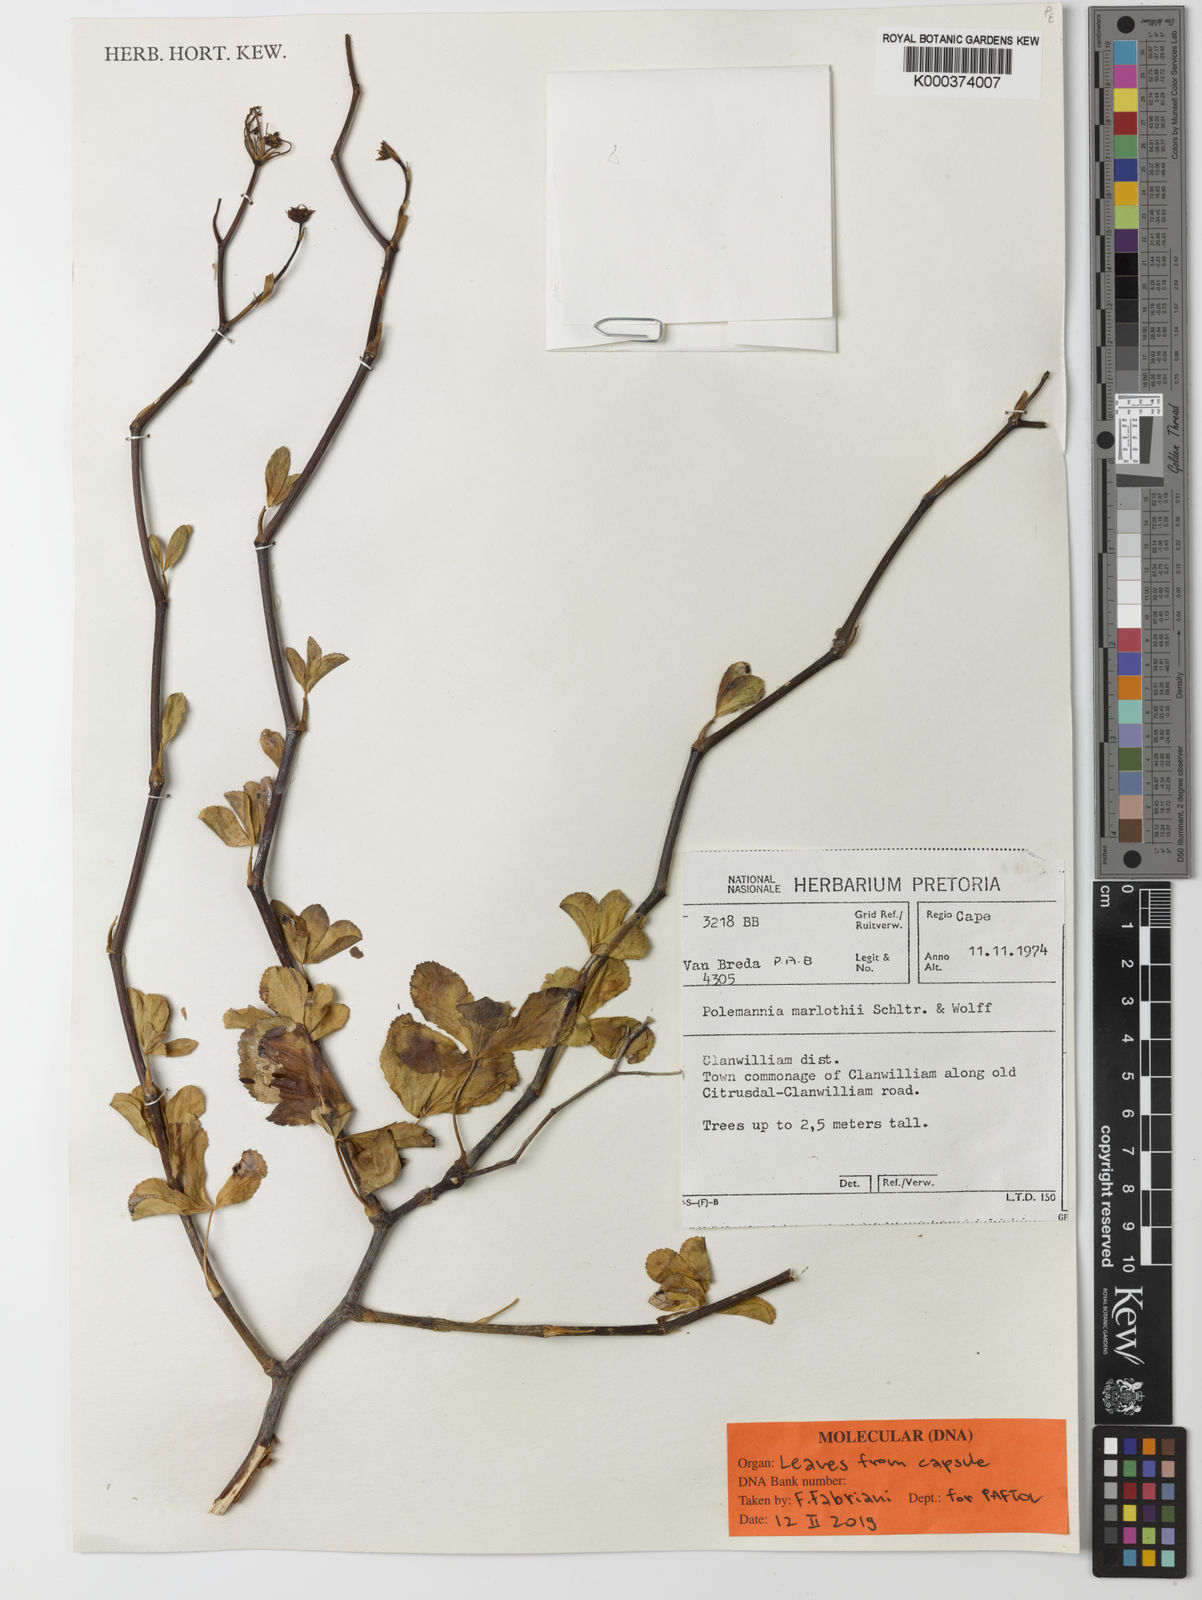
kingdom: Plantae
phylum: Tracheophyta
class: Magnoliopsida
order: Apiales
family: Apiaceae
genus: Polemanniopsis
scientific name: Polemanniopsis marlothii
